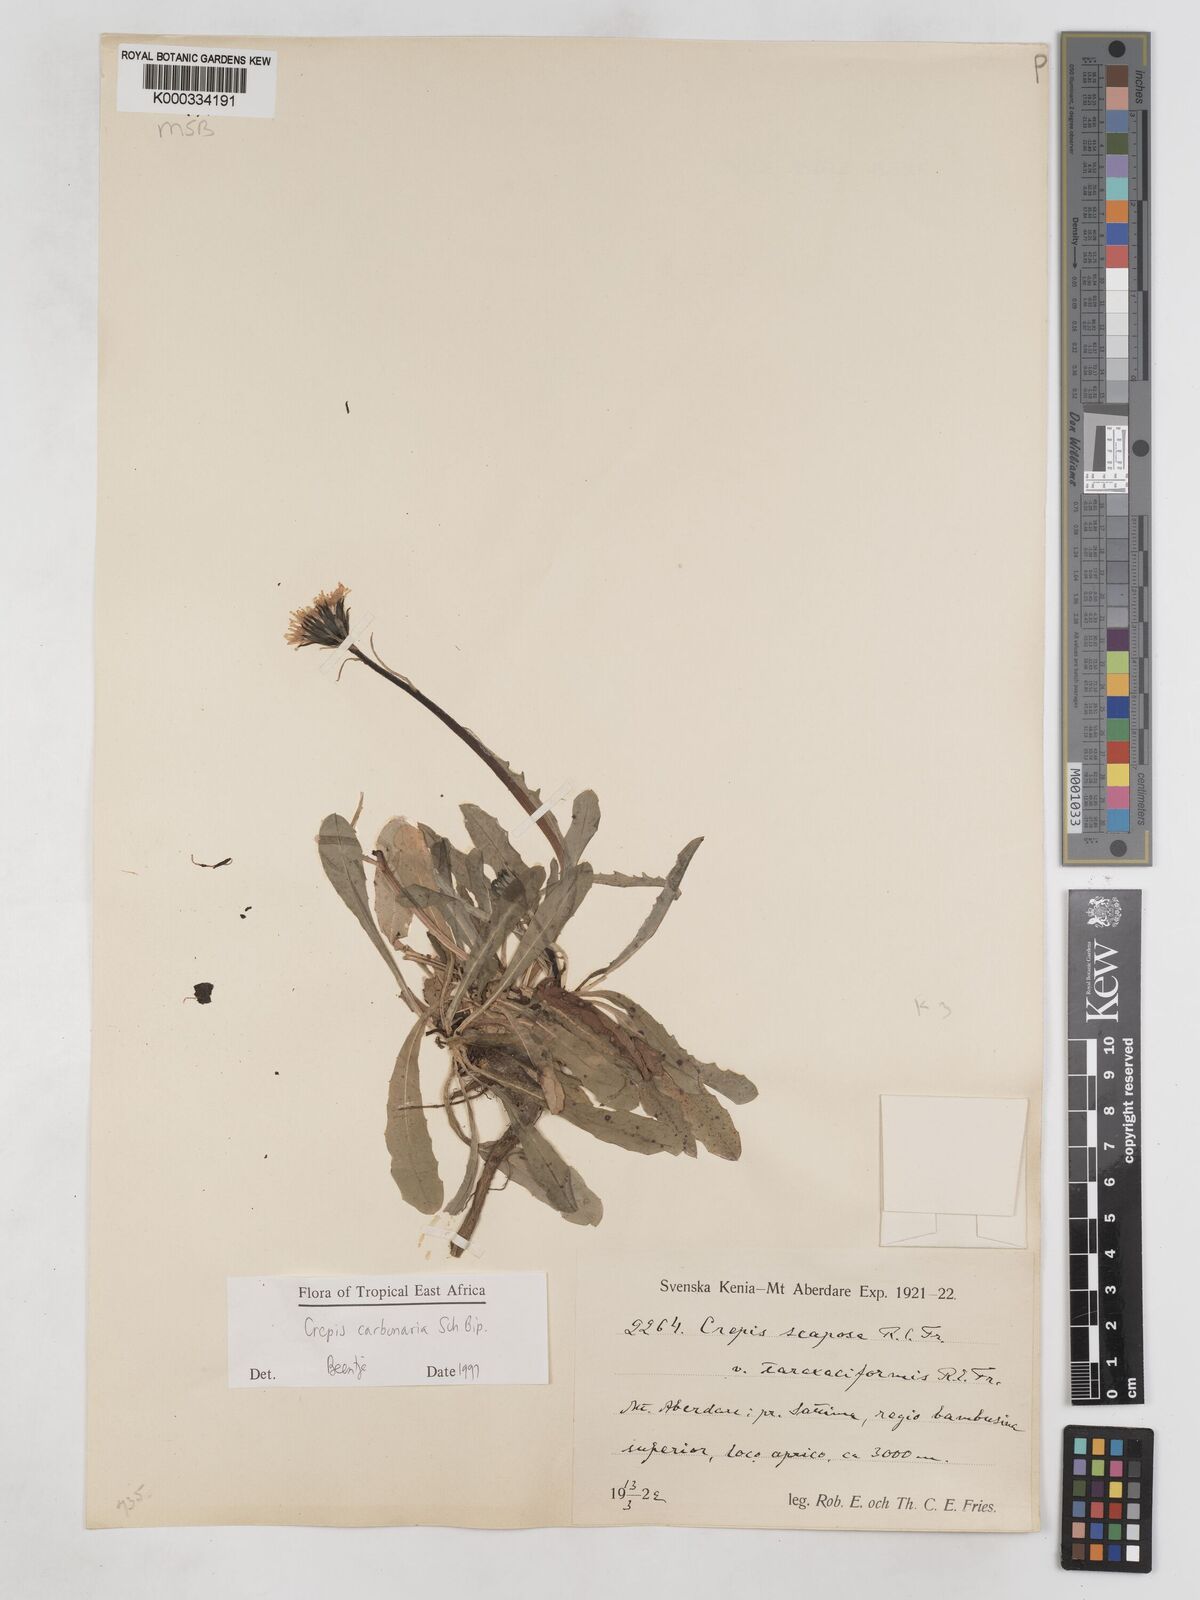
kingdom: Plantae
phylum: Tracheophyta
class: Magnoliopsida
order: Asterales
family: Asteraceae
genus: Crepis
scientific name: Crepis carbonaria
